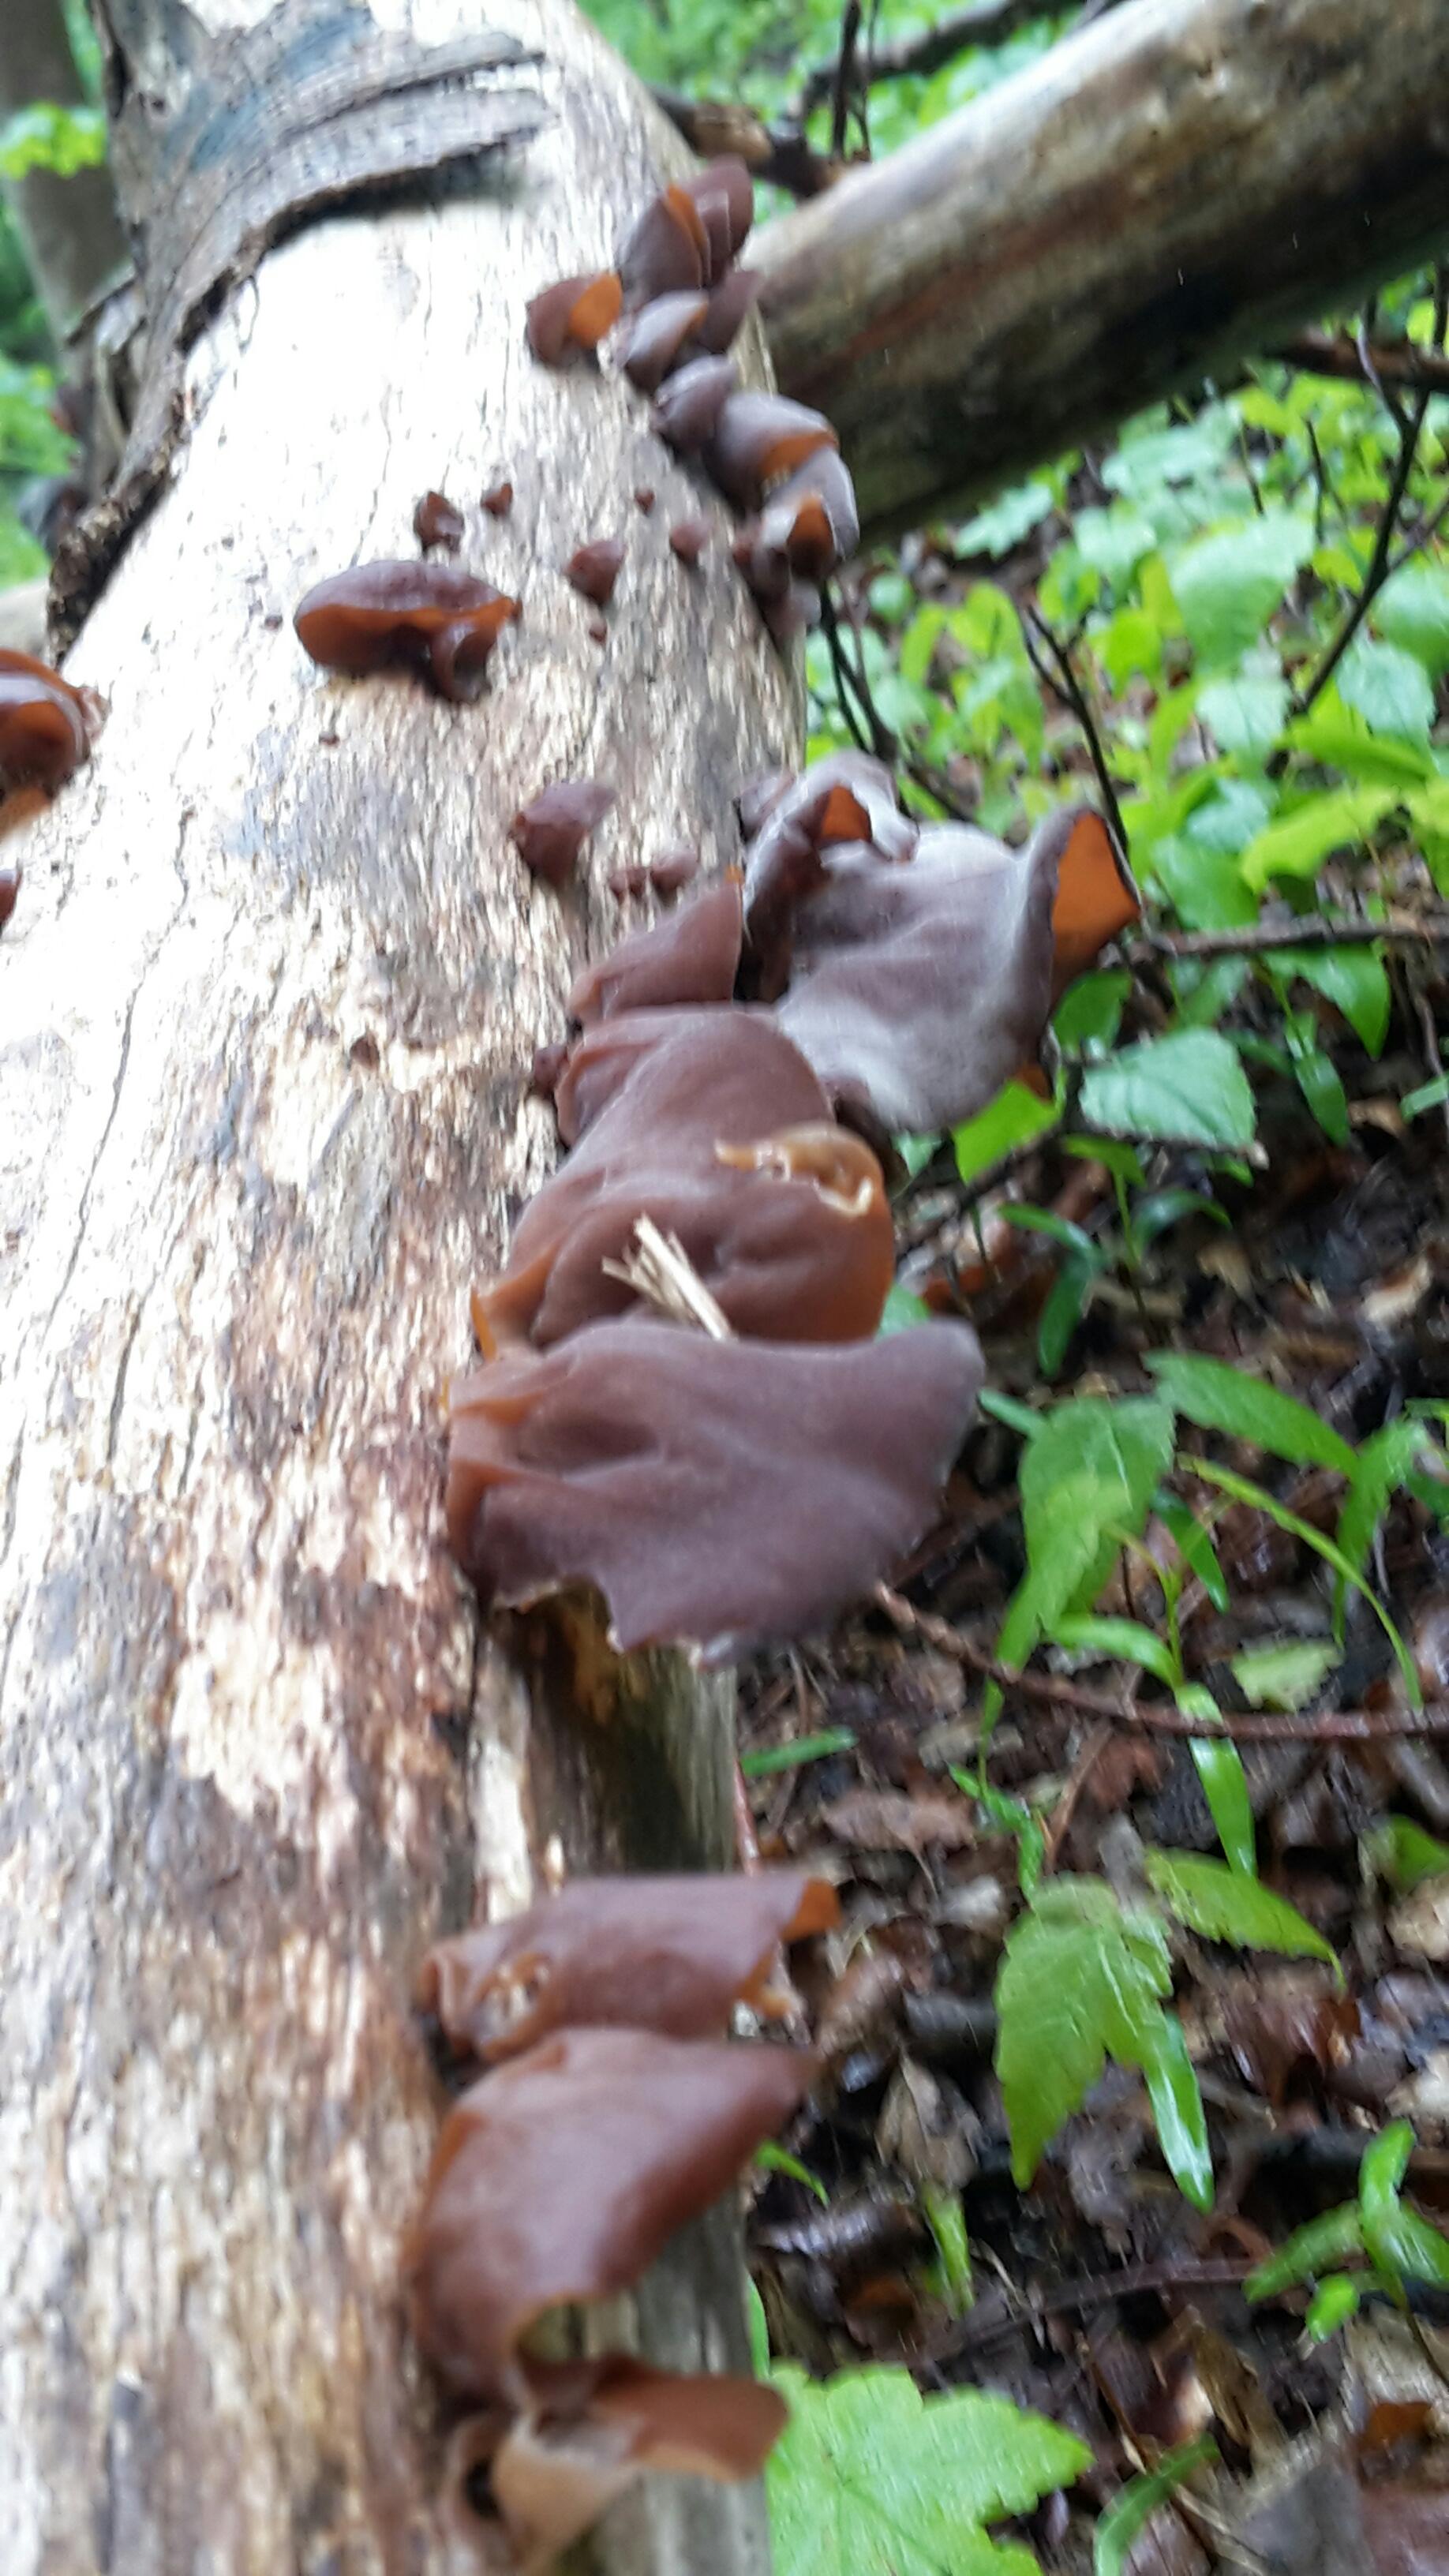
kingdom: Fungi
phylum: Basidiomycota
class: Agaricomycetes
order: Auriculariales
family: Auriculariaceae
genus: Auricularia
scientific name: Auricularia auricula-judae
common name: almindelig judasøre
